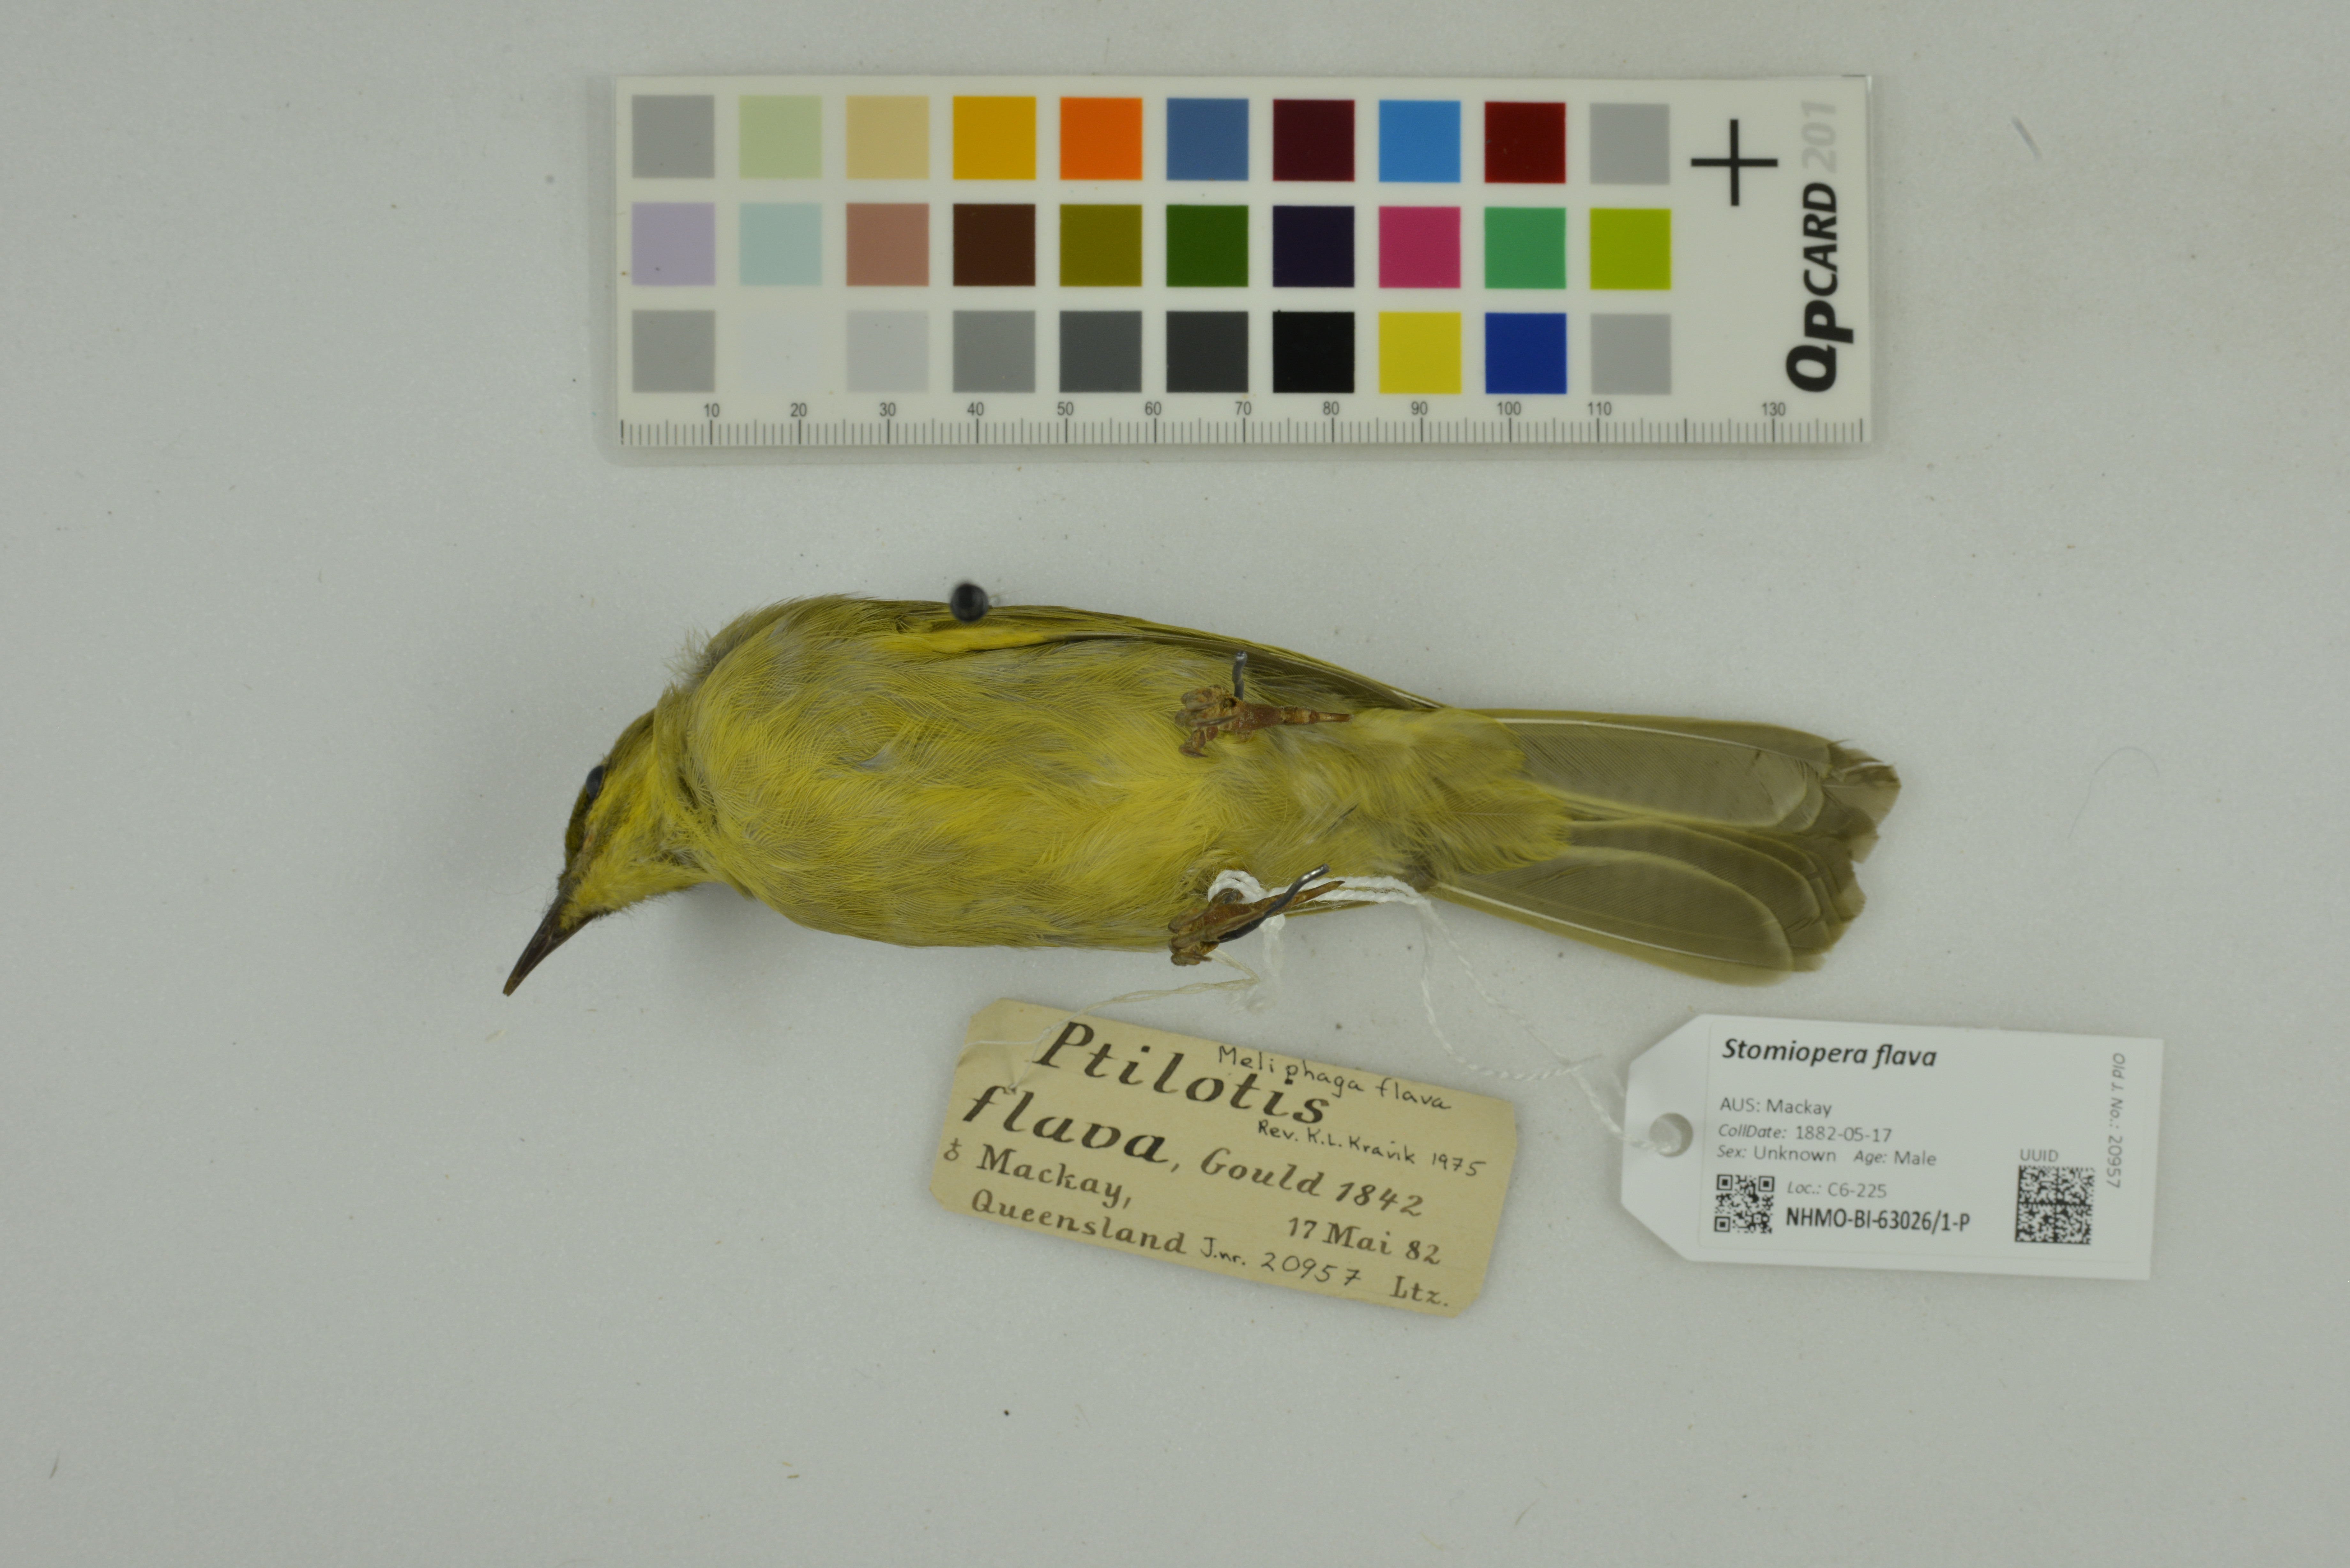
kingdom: Animalia
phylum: Chordata
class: Aves
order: Passeriformes
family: Meliphagidae
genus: Stomiopera
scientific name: Stomiopera flava
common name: Yellow honeyeater
